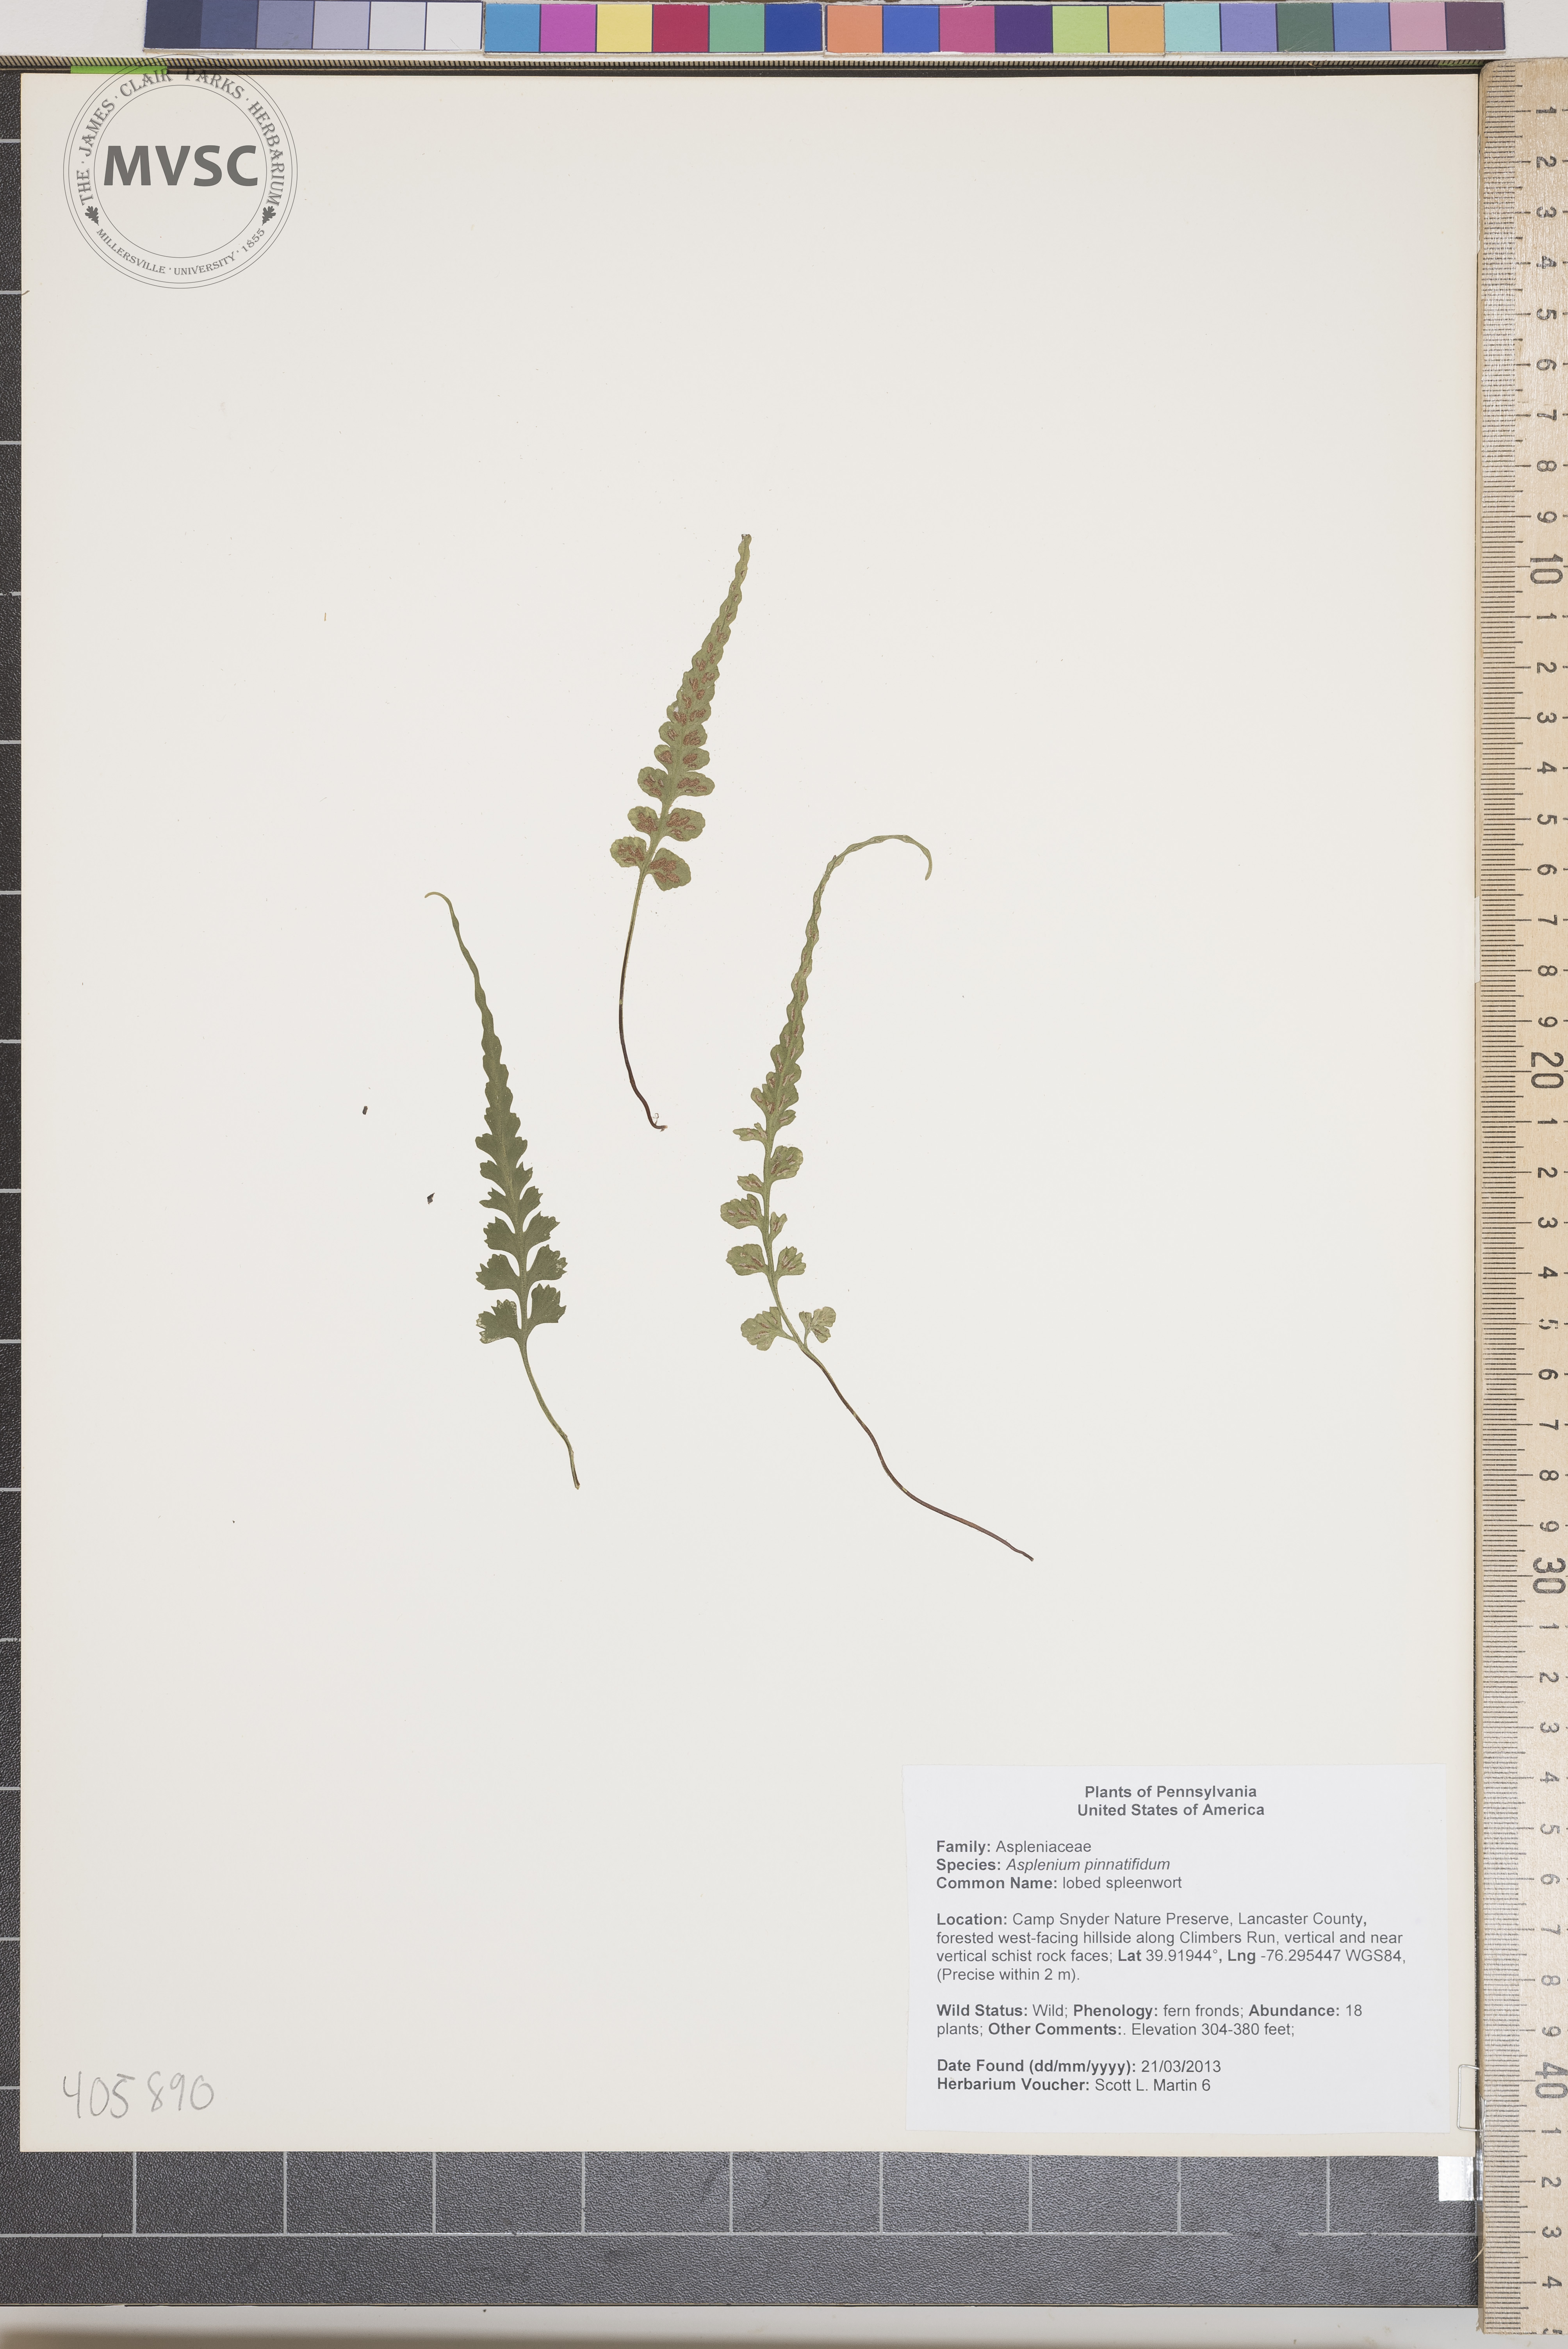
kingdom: Plantae
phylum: Tracheophyta
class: Polypodiopsida
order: Polypodiales
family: Aspleniaceae
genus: Asplenium
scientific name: Asplenium pinnatifidum
